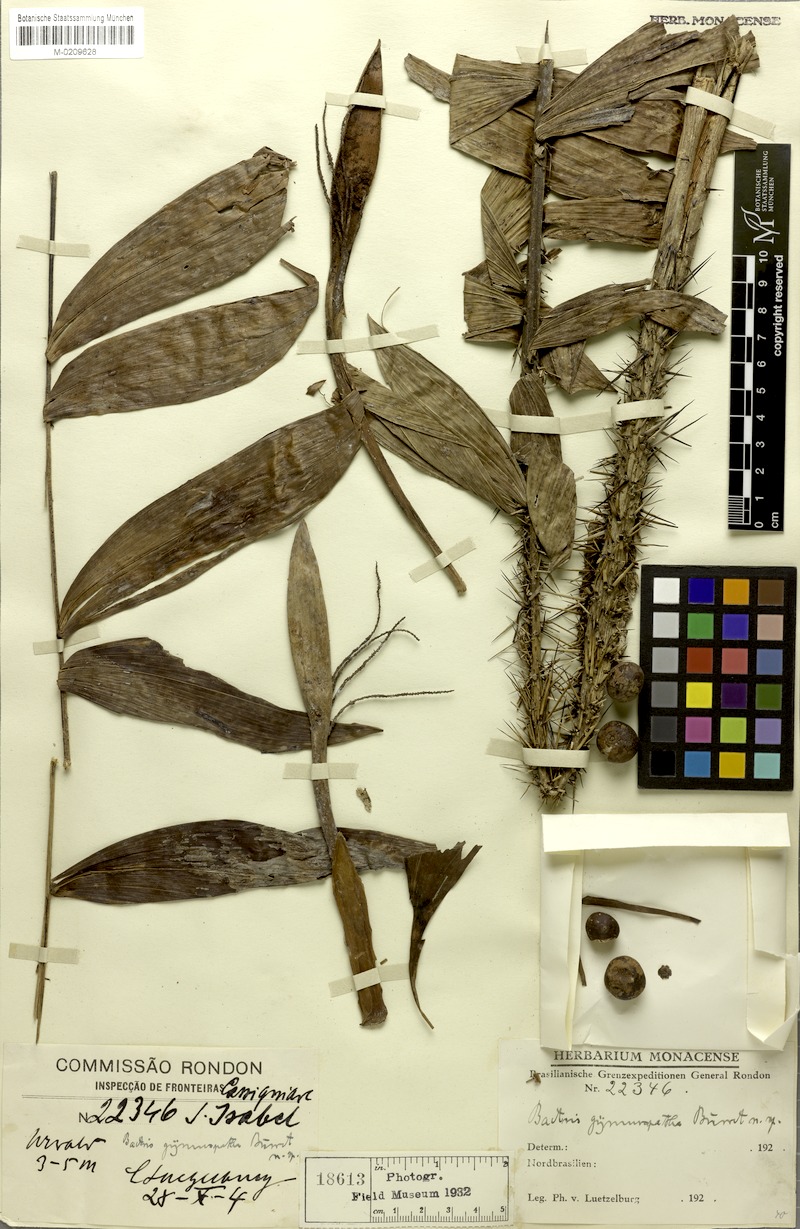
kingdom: Plantae
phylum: Tracheophyta
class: Liliopsida
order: Arecales
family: Arecaceae
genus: Bactris
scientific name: Bactris maraja
